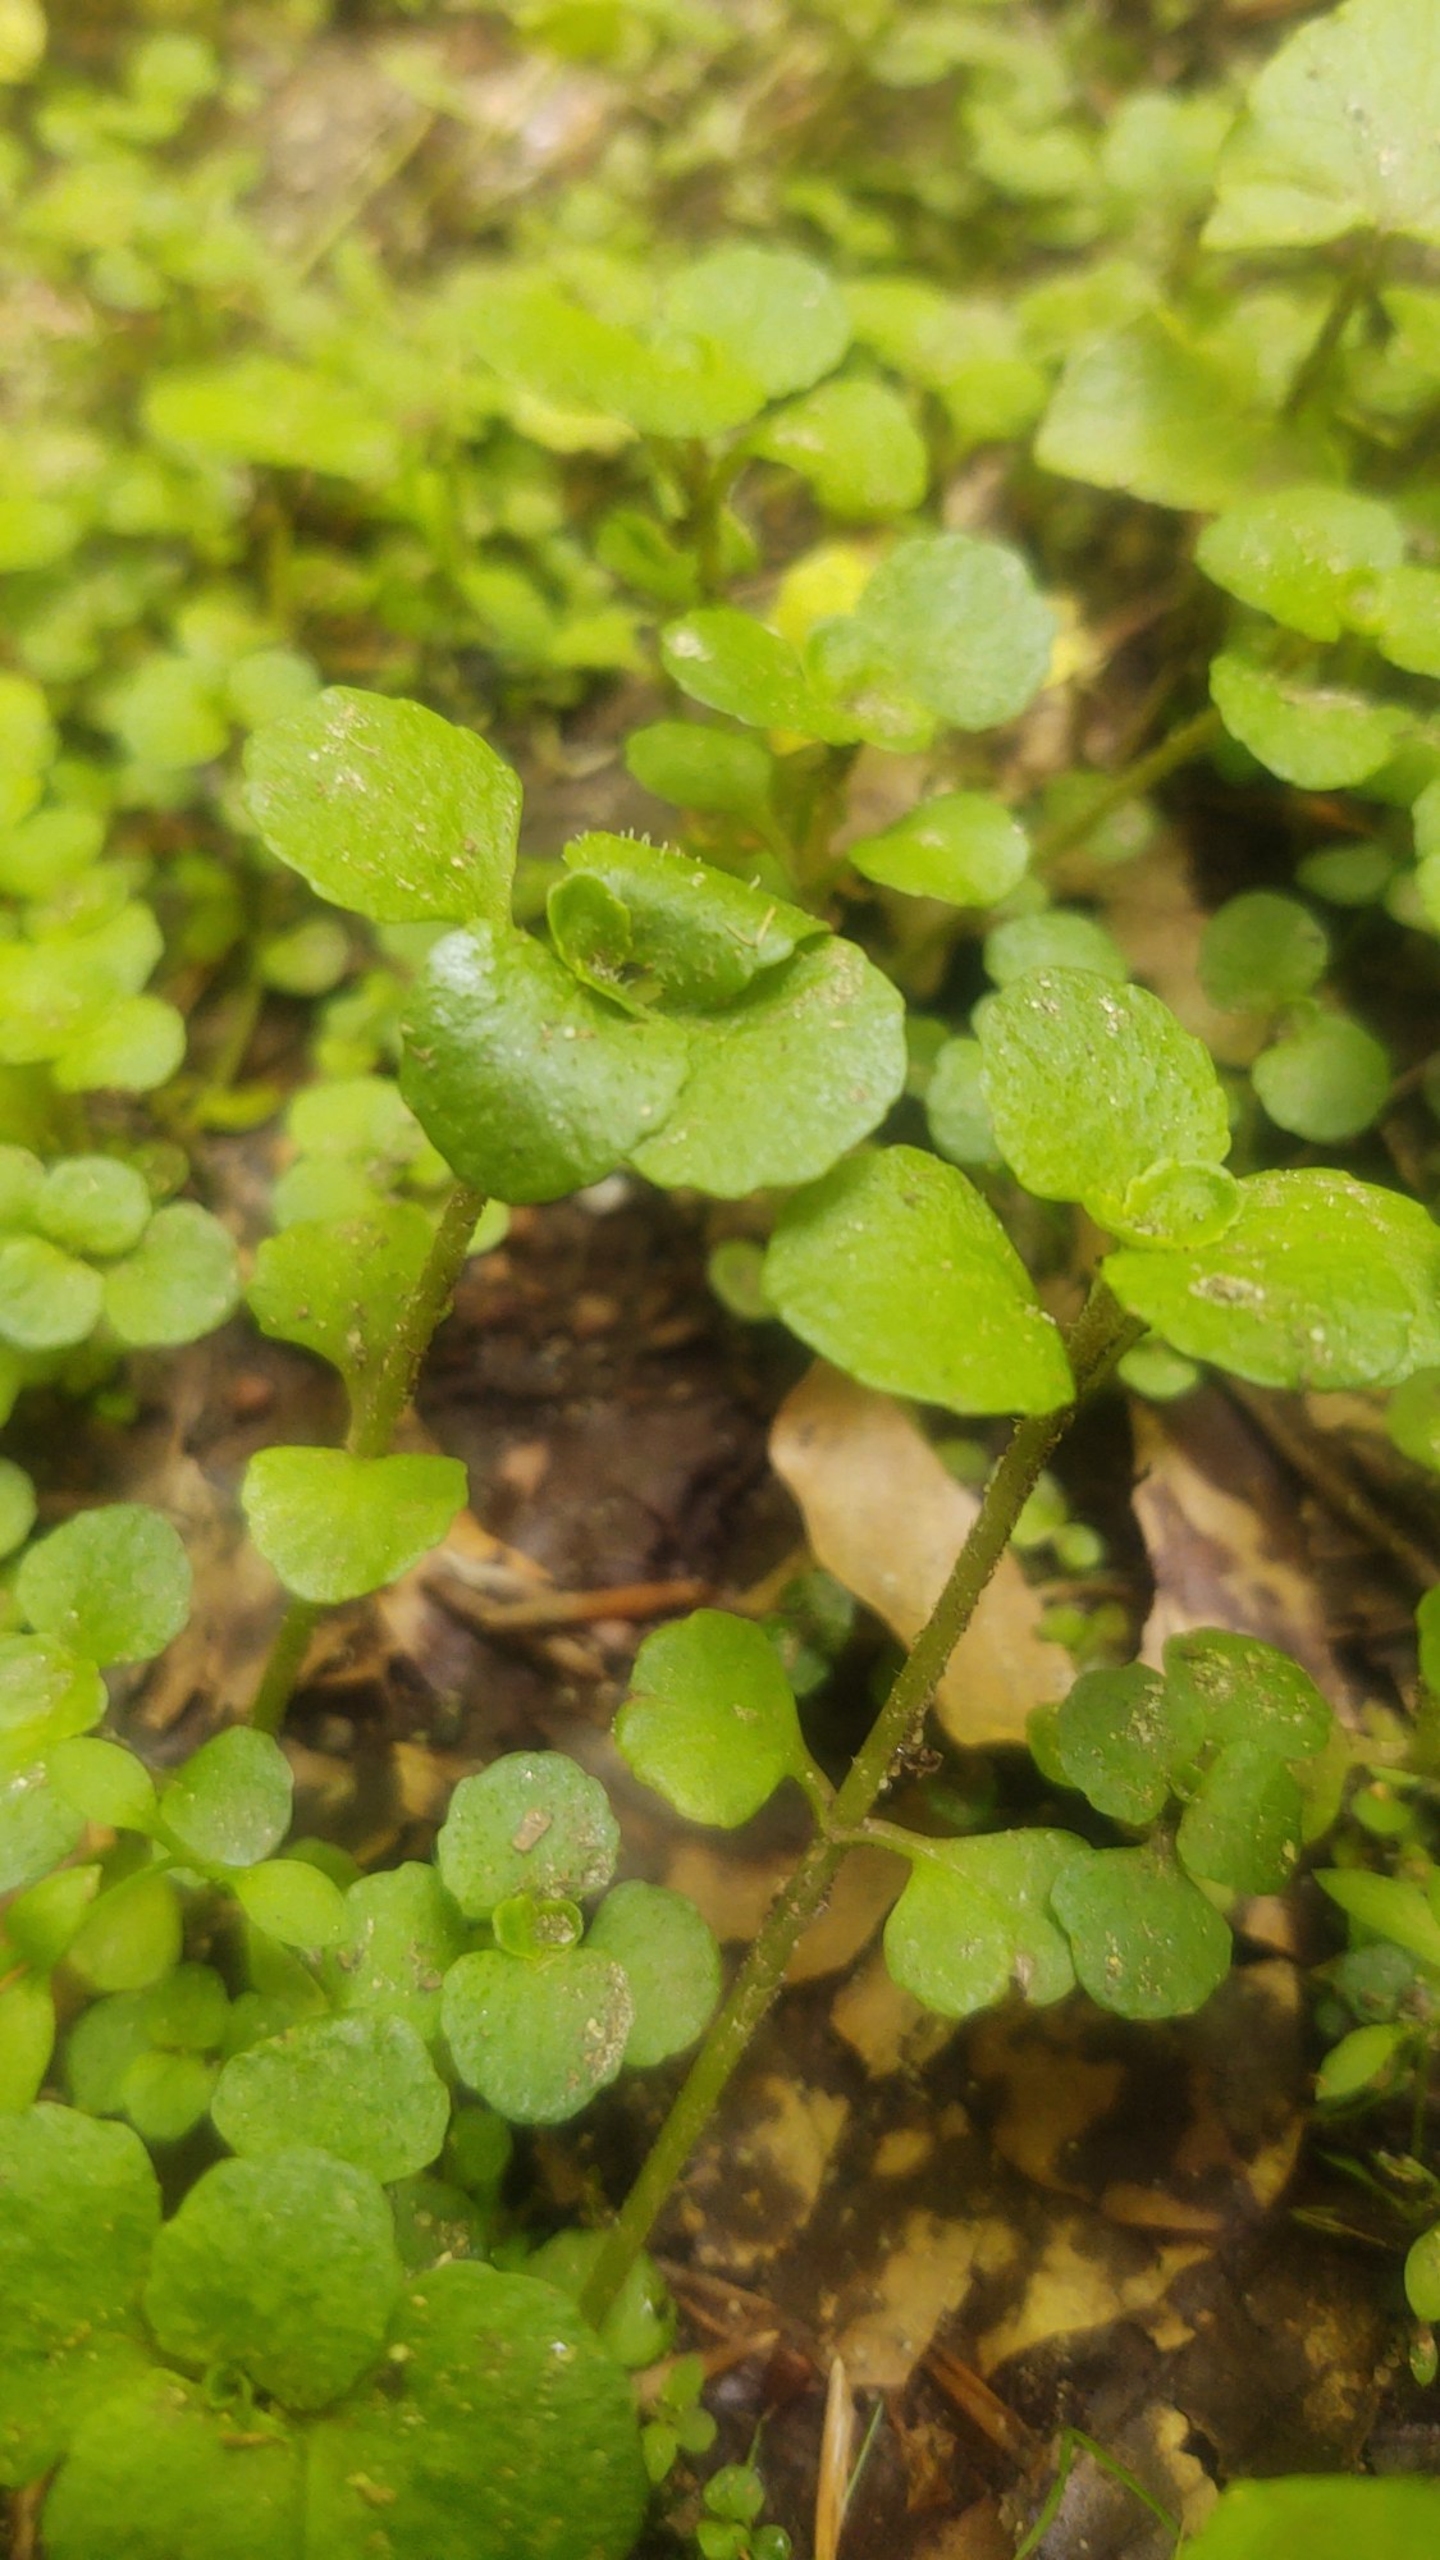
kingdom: Plantae
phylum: Tracheophyta
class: Magnoliopsida
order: Saxifragales
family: Saxifragaceae
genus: Chrysosplenium
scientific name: Chrysosplenium oppositifolium
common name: Småbladet milturt
